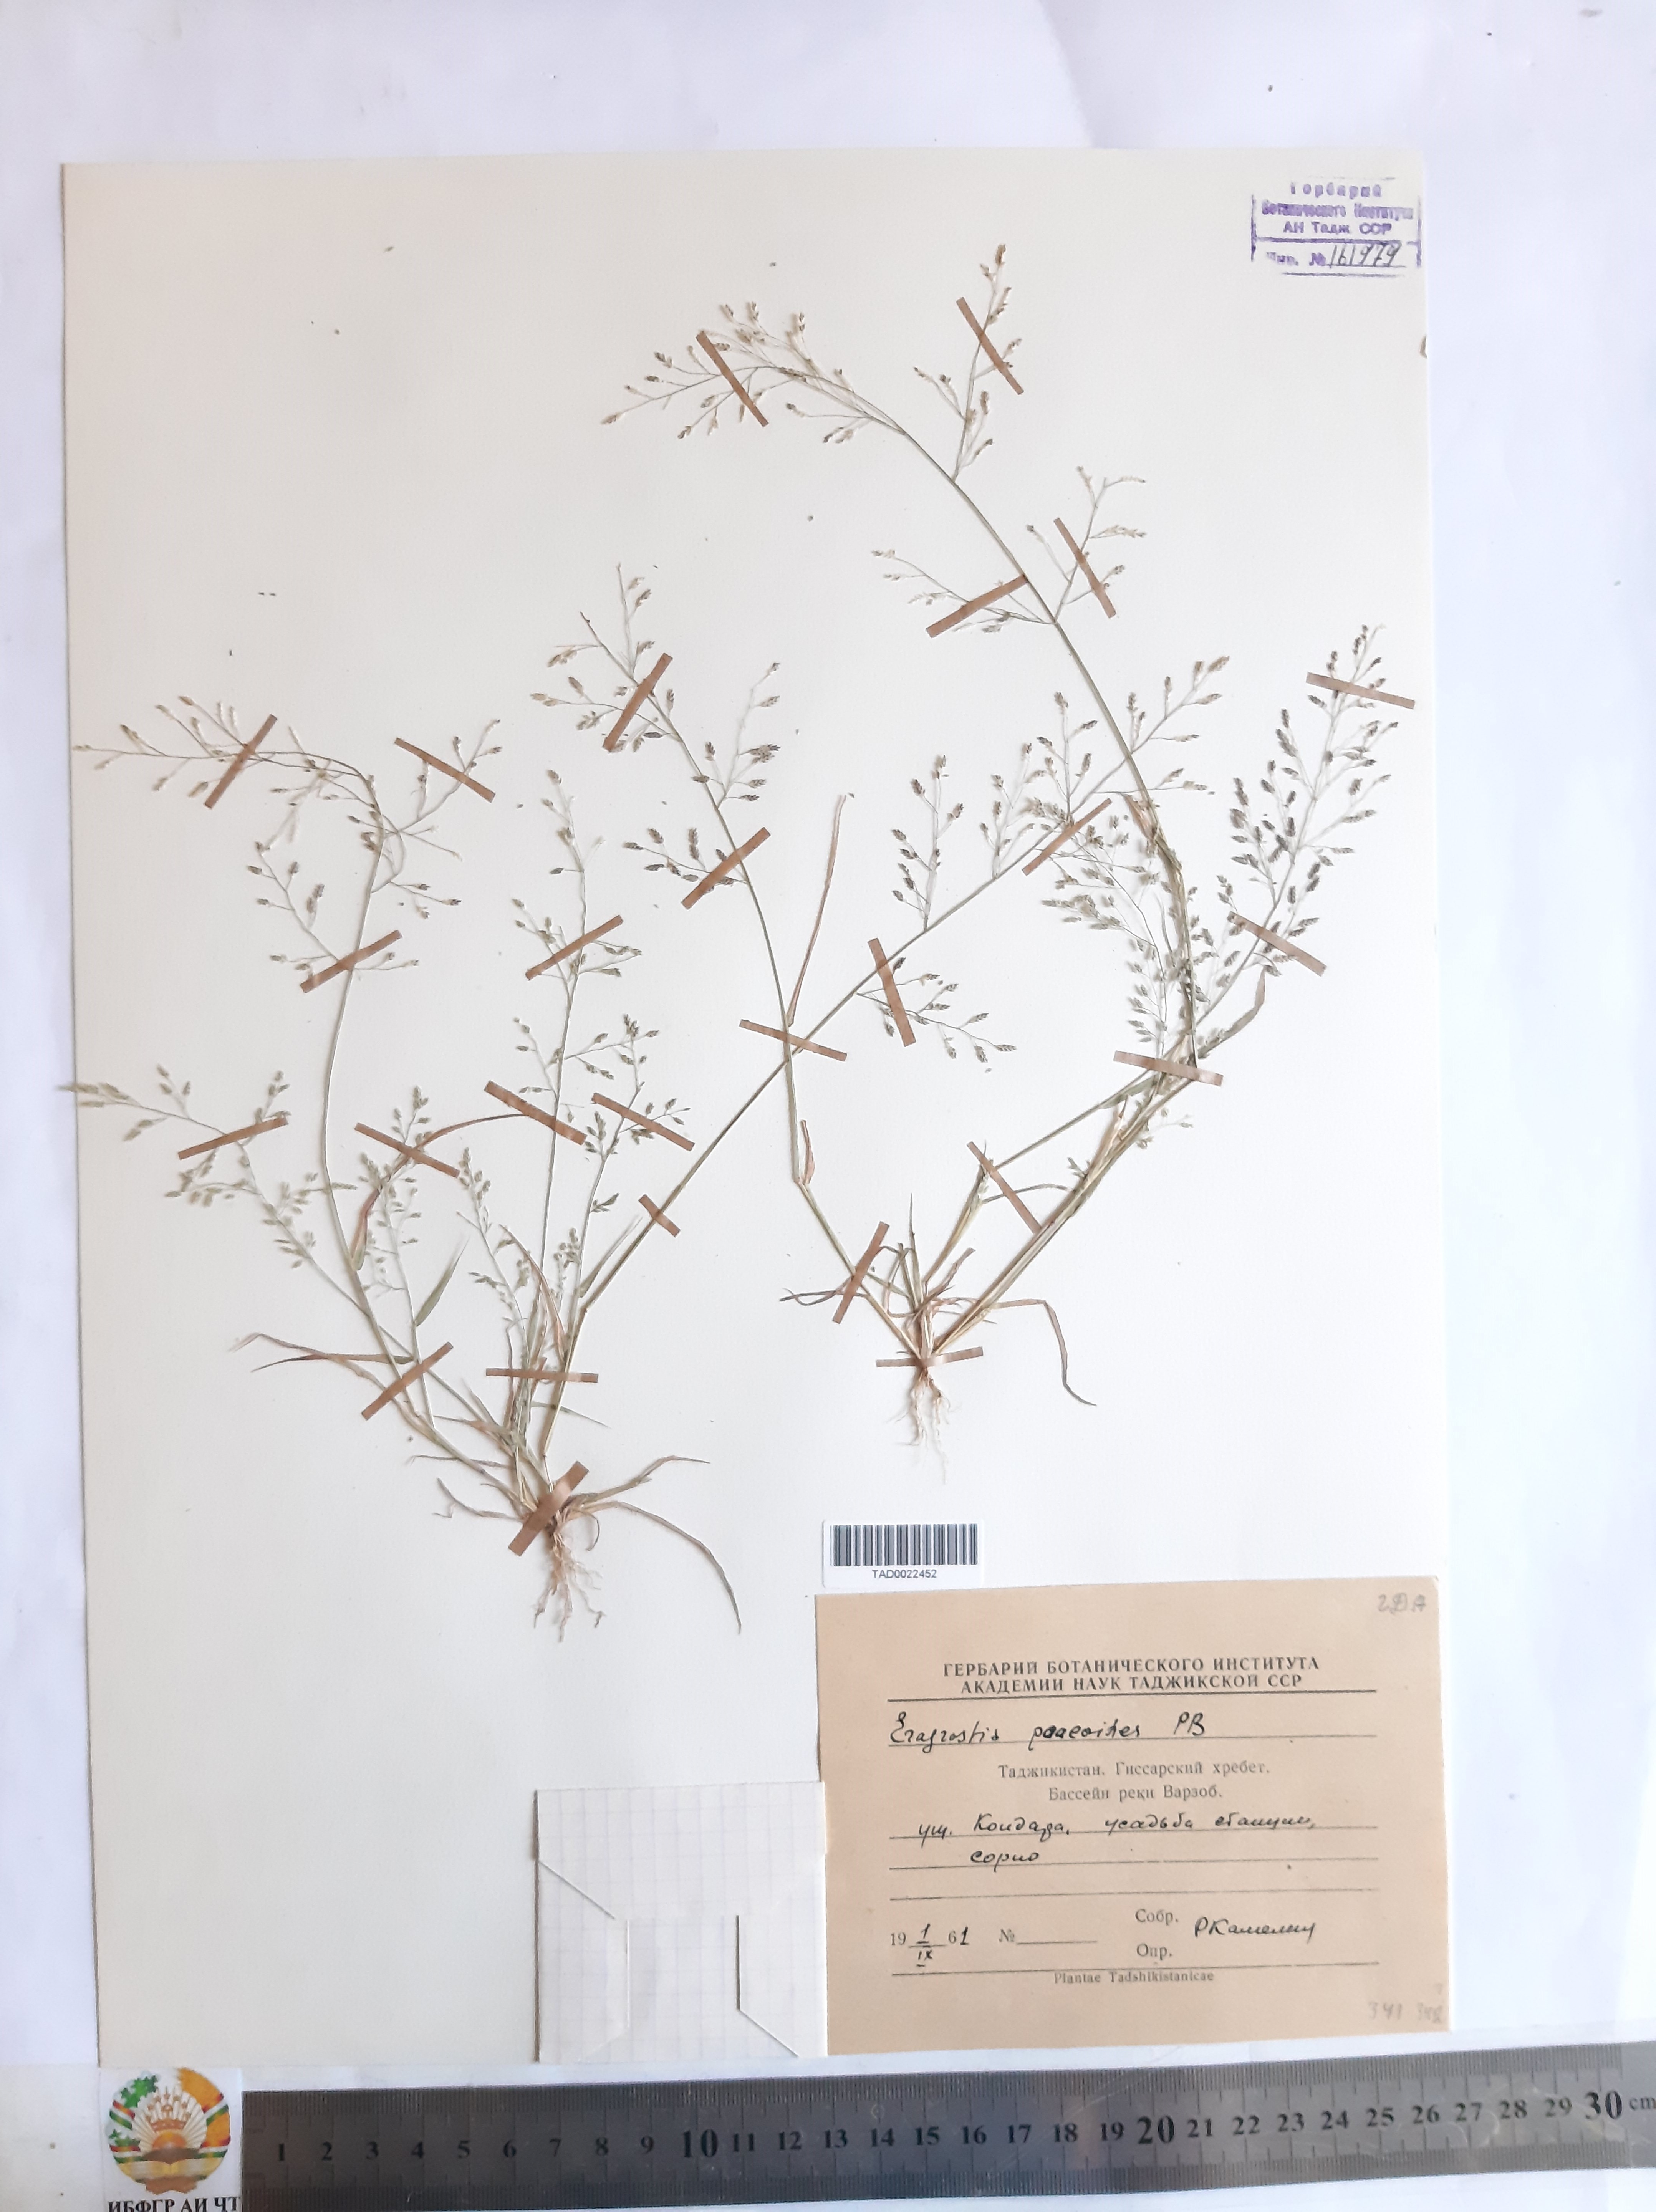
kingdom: Plantae
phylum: Tracheophyta
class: Liliopsida
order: Poales
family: Poaceae
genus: Eragrostis
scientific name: Eragrostis minor
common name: Small love-grass
